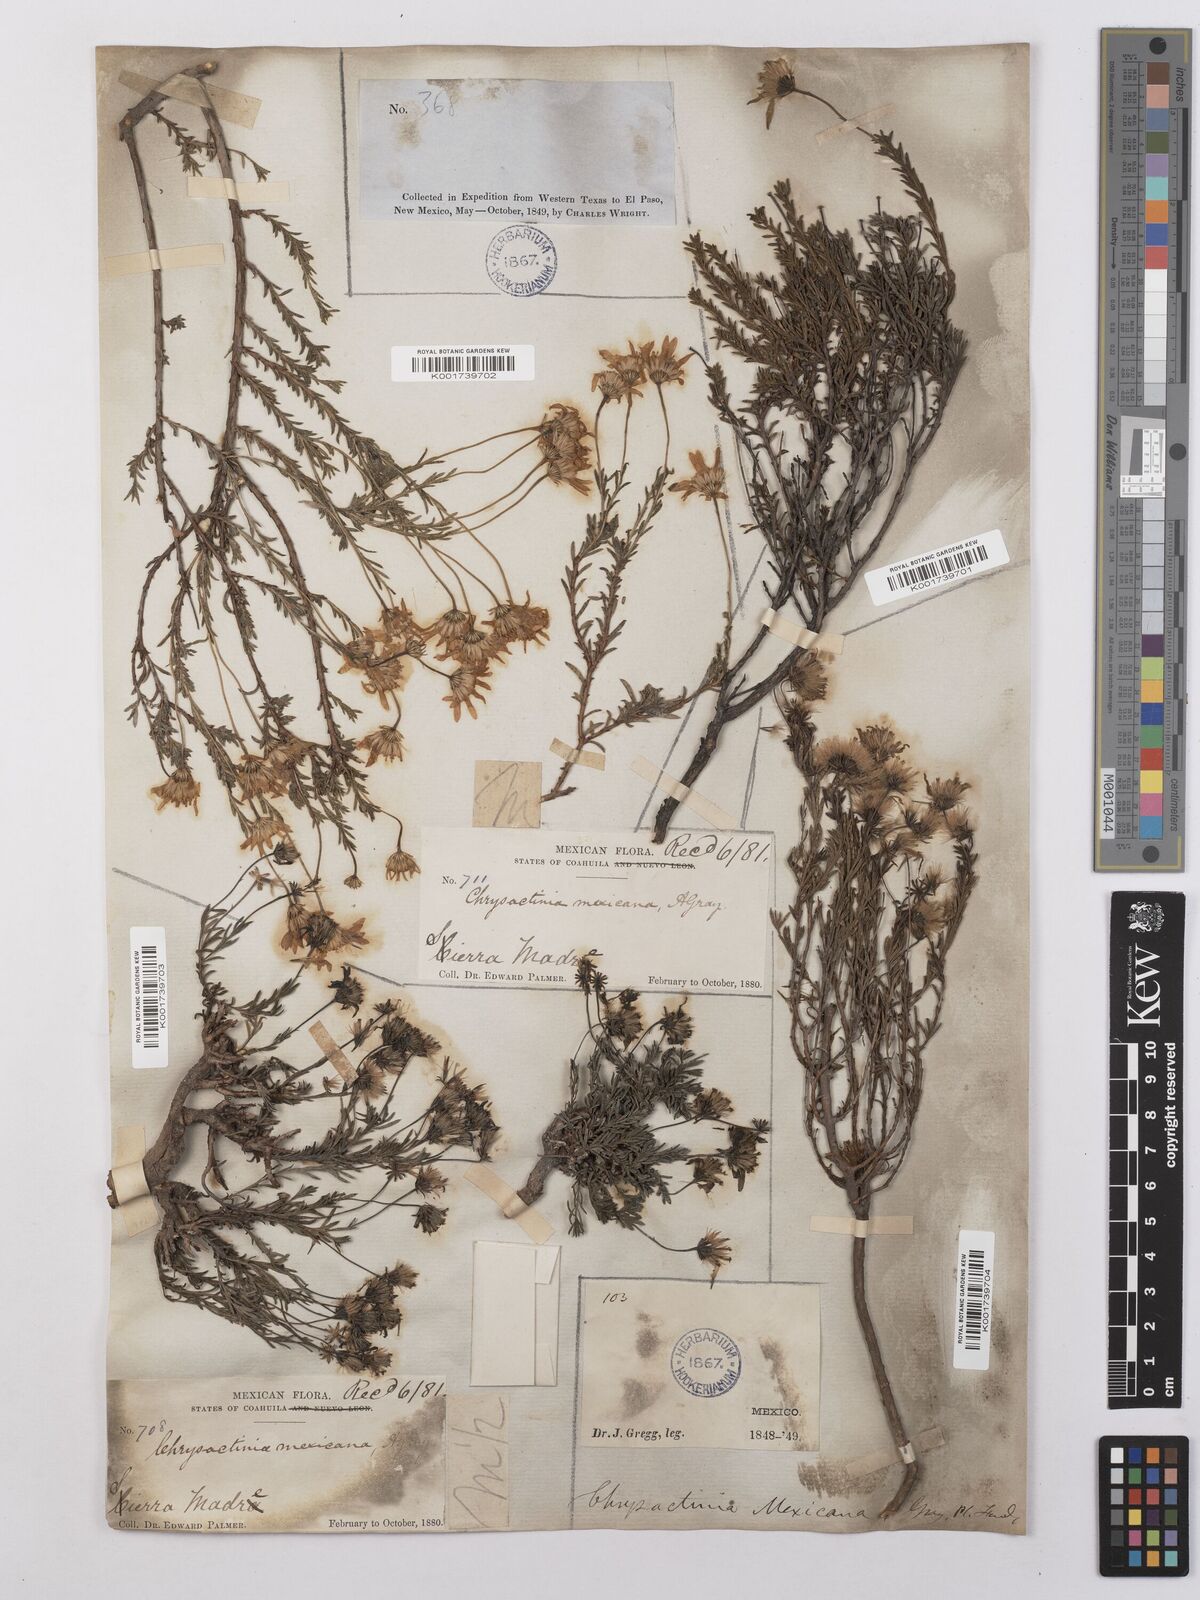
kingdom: Plantae
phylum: Tracheophyta
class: Magnoliopsida
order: Asterales
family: Asteraceae
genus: Chrysactinia
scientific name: Chrysactinia mexicana
